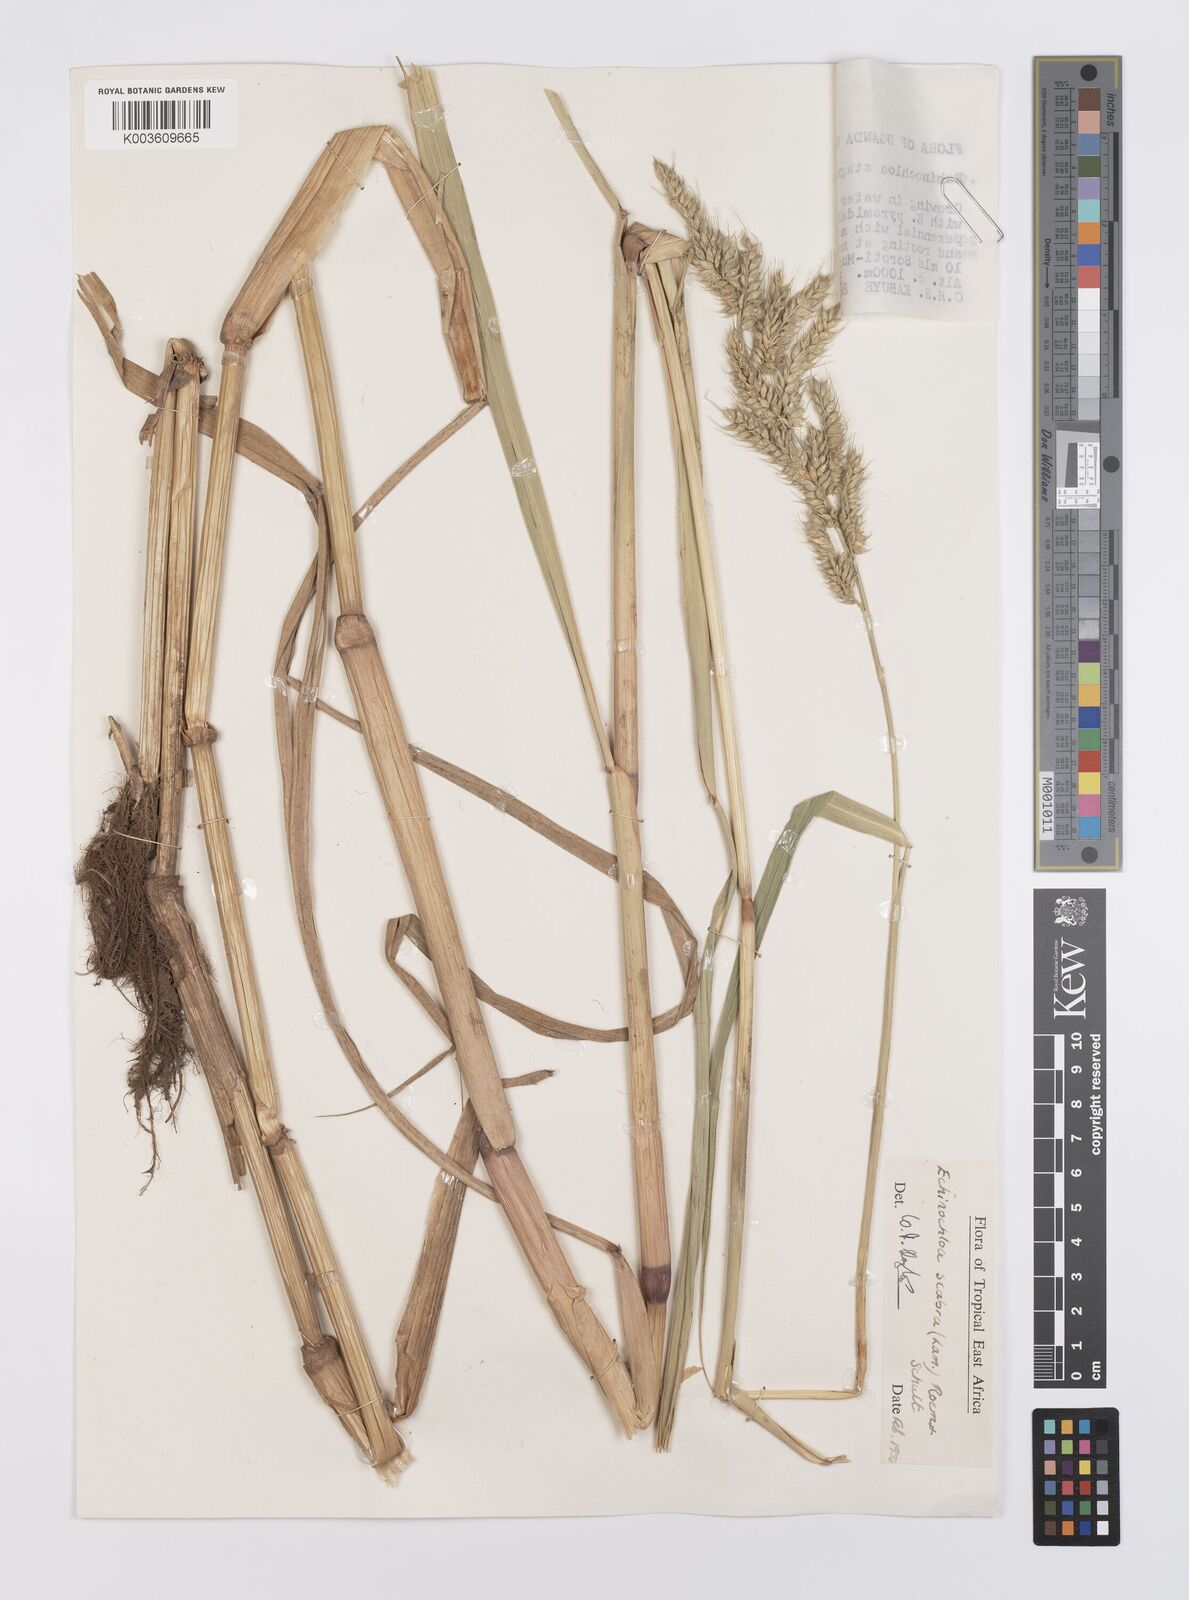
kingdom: Plantae
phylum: Tracheophyta
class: Liliopsida
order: Poales
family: Poaceae
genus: Echinochloa
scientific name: Echinochloa stagnina
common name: Burgu grass
